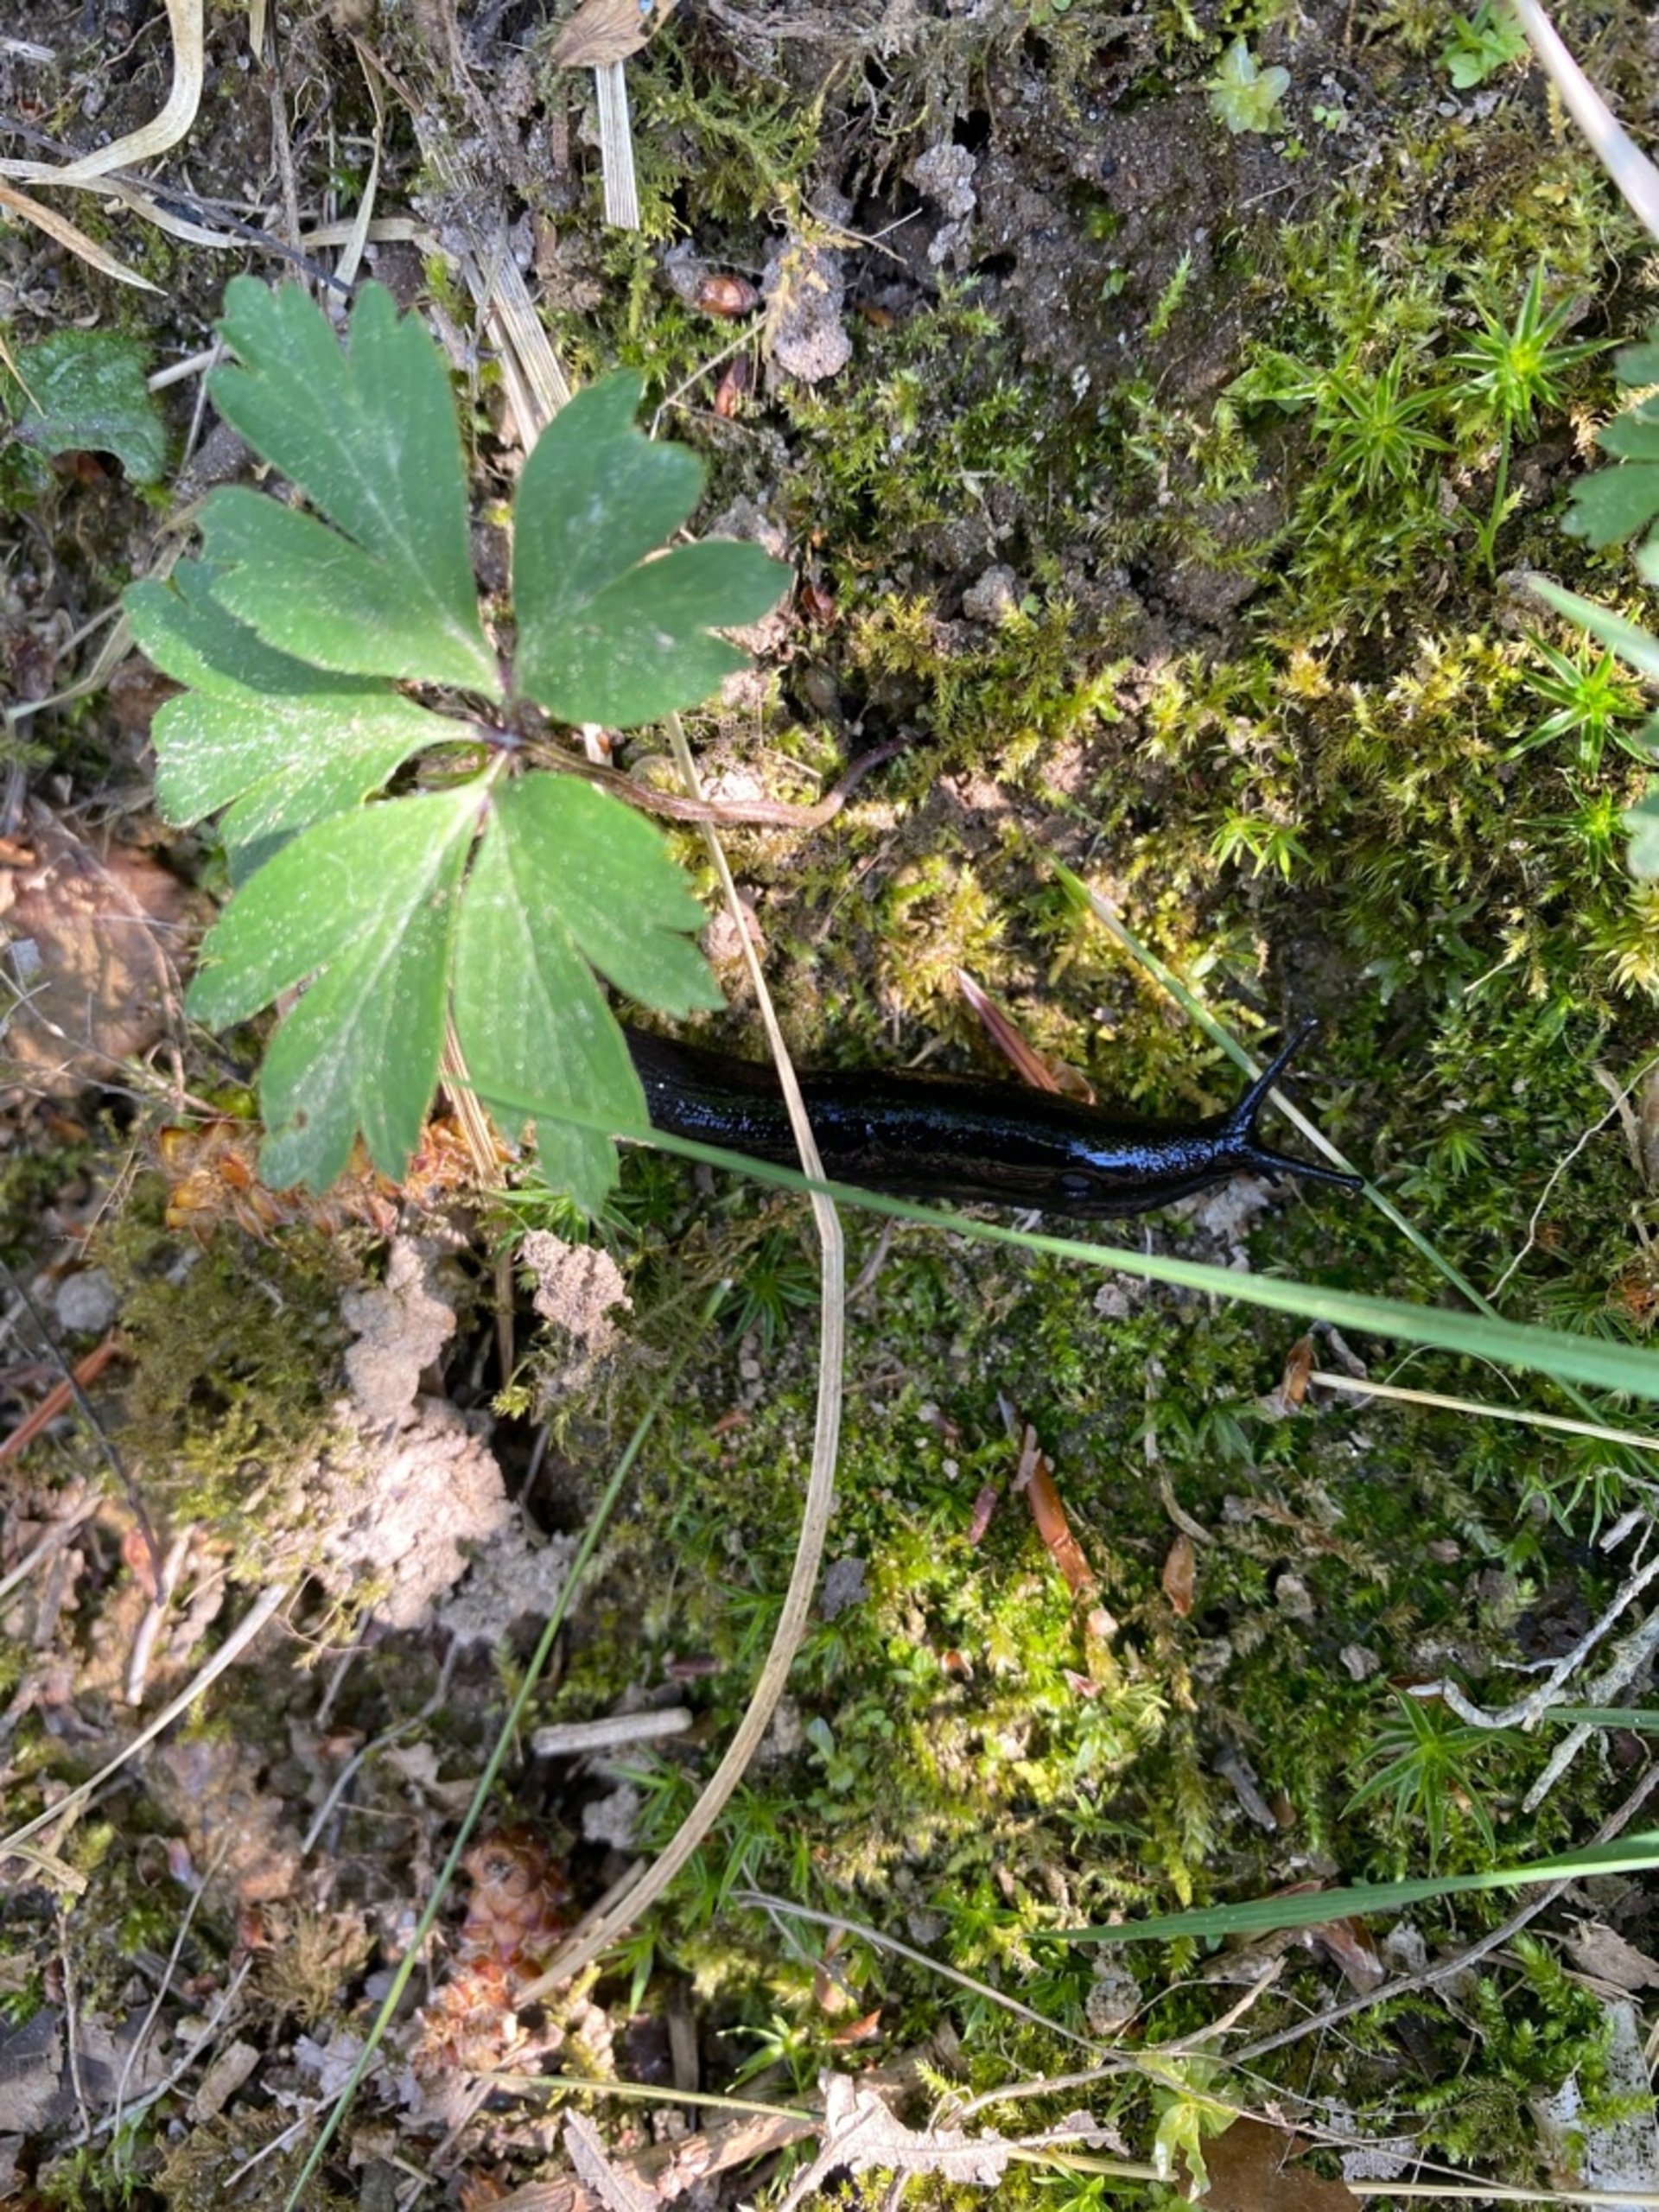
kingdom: Animalia
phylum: Mollusca
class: Gastropoda
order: Stylommatophora
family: Arionidae
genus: Arion
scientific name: Arion ater
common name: Sort skovsnegl
